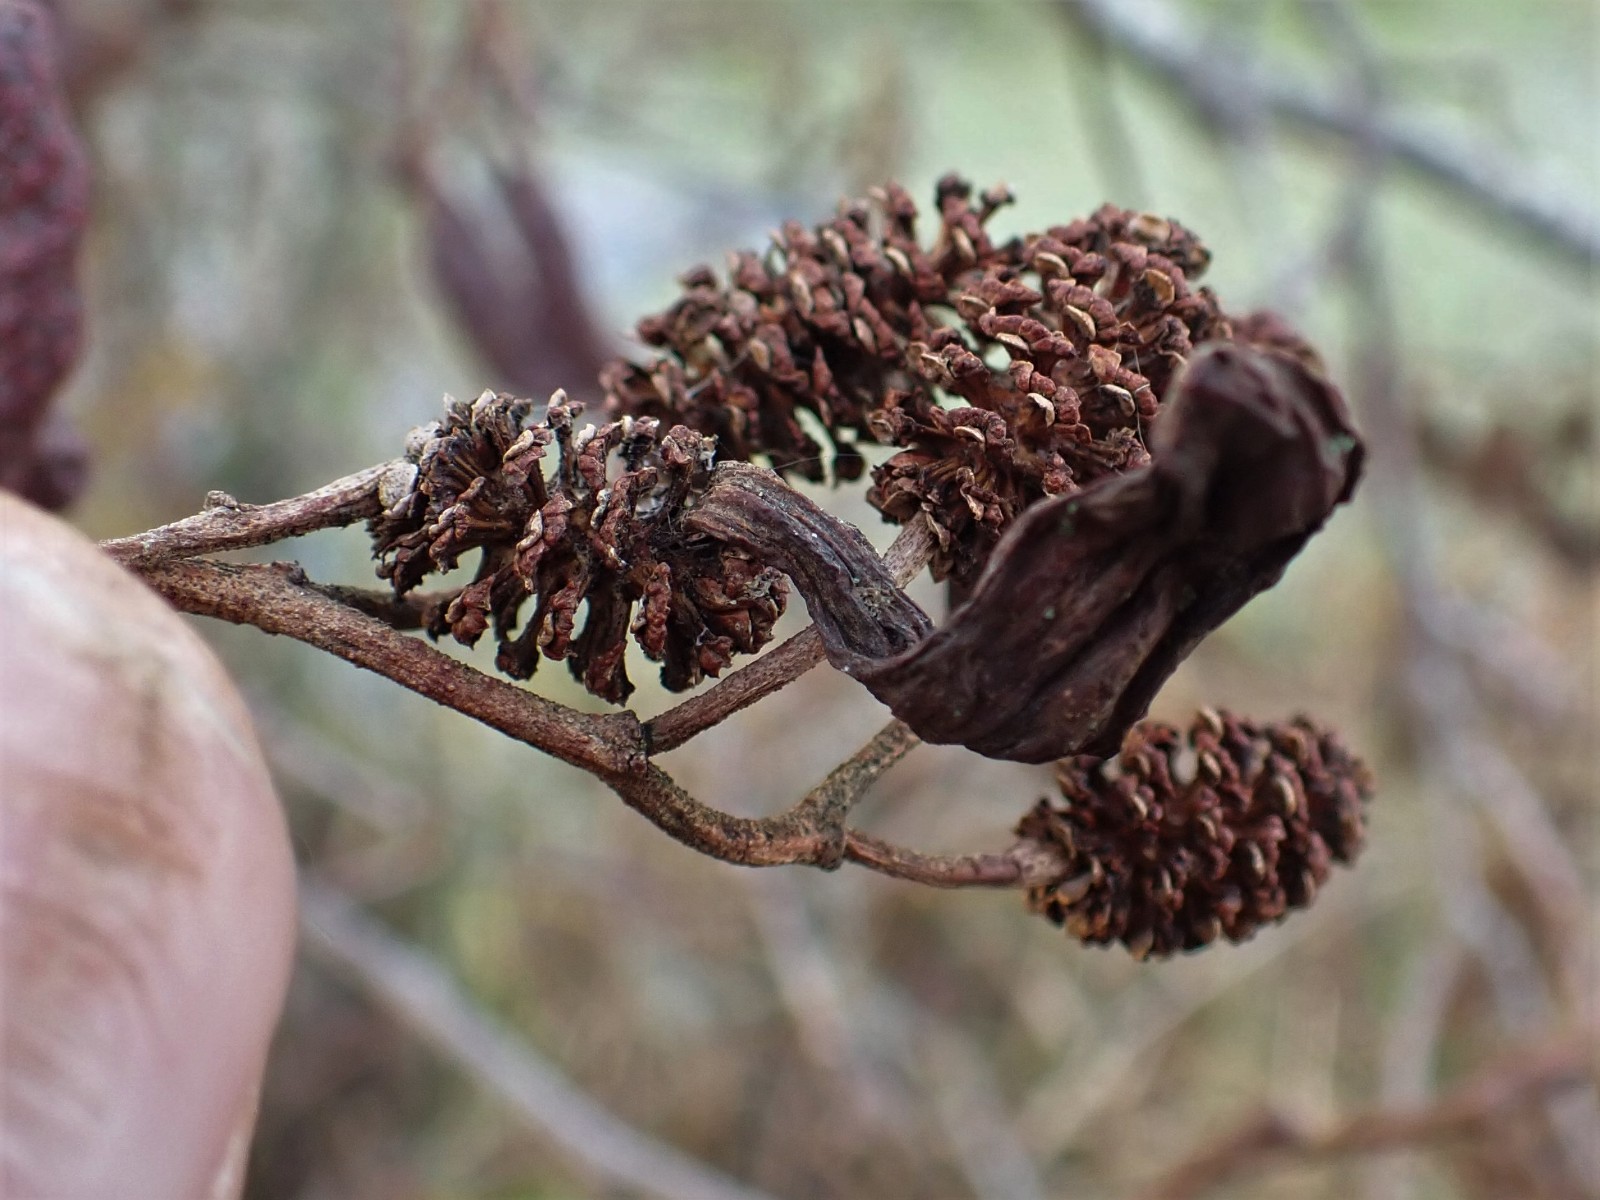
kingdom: Fungi
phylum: Ascomycota
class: Taphrinomycetes
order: Taphrinales
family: Taphrinaceae
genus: Taphrina
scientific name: Taphrina alni
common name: Alder tongue
